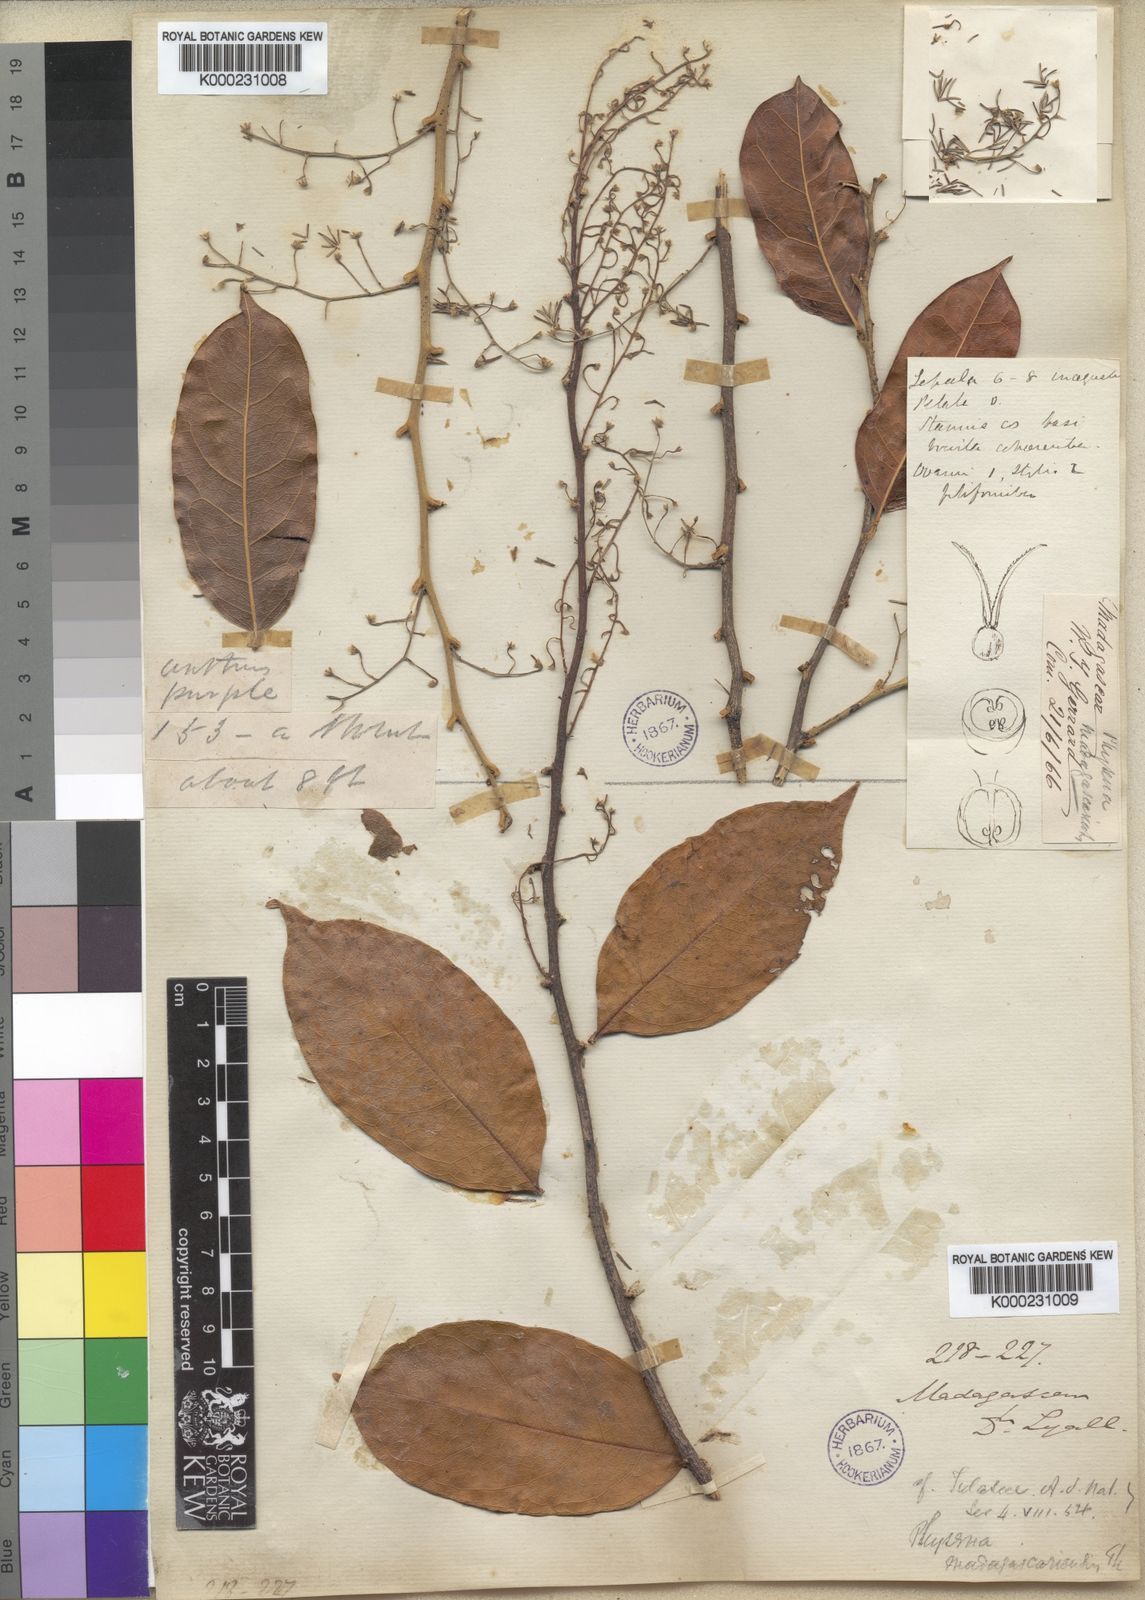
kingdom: Plantae
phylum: Tracheophyta
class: Magnoliopsida
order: Caryophyllales
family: Physenaceae
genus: Physena
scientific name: Physena madagascariensis
